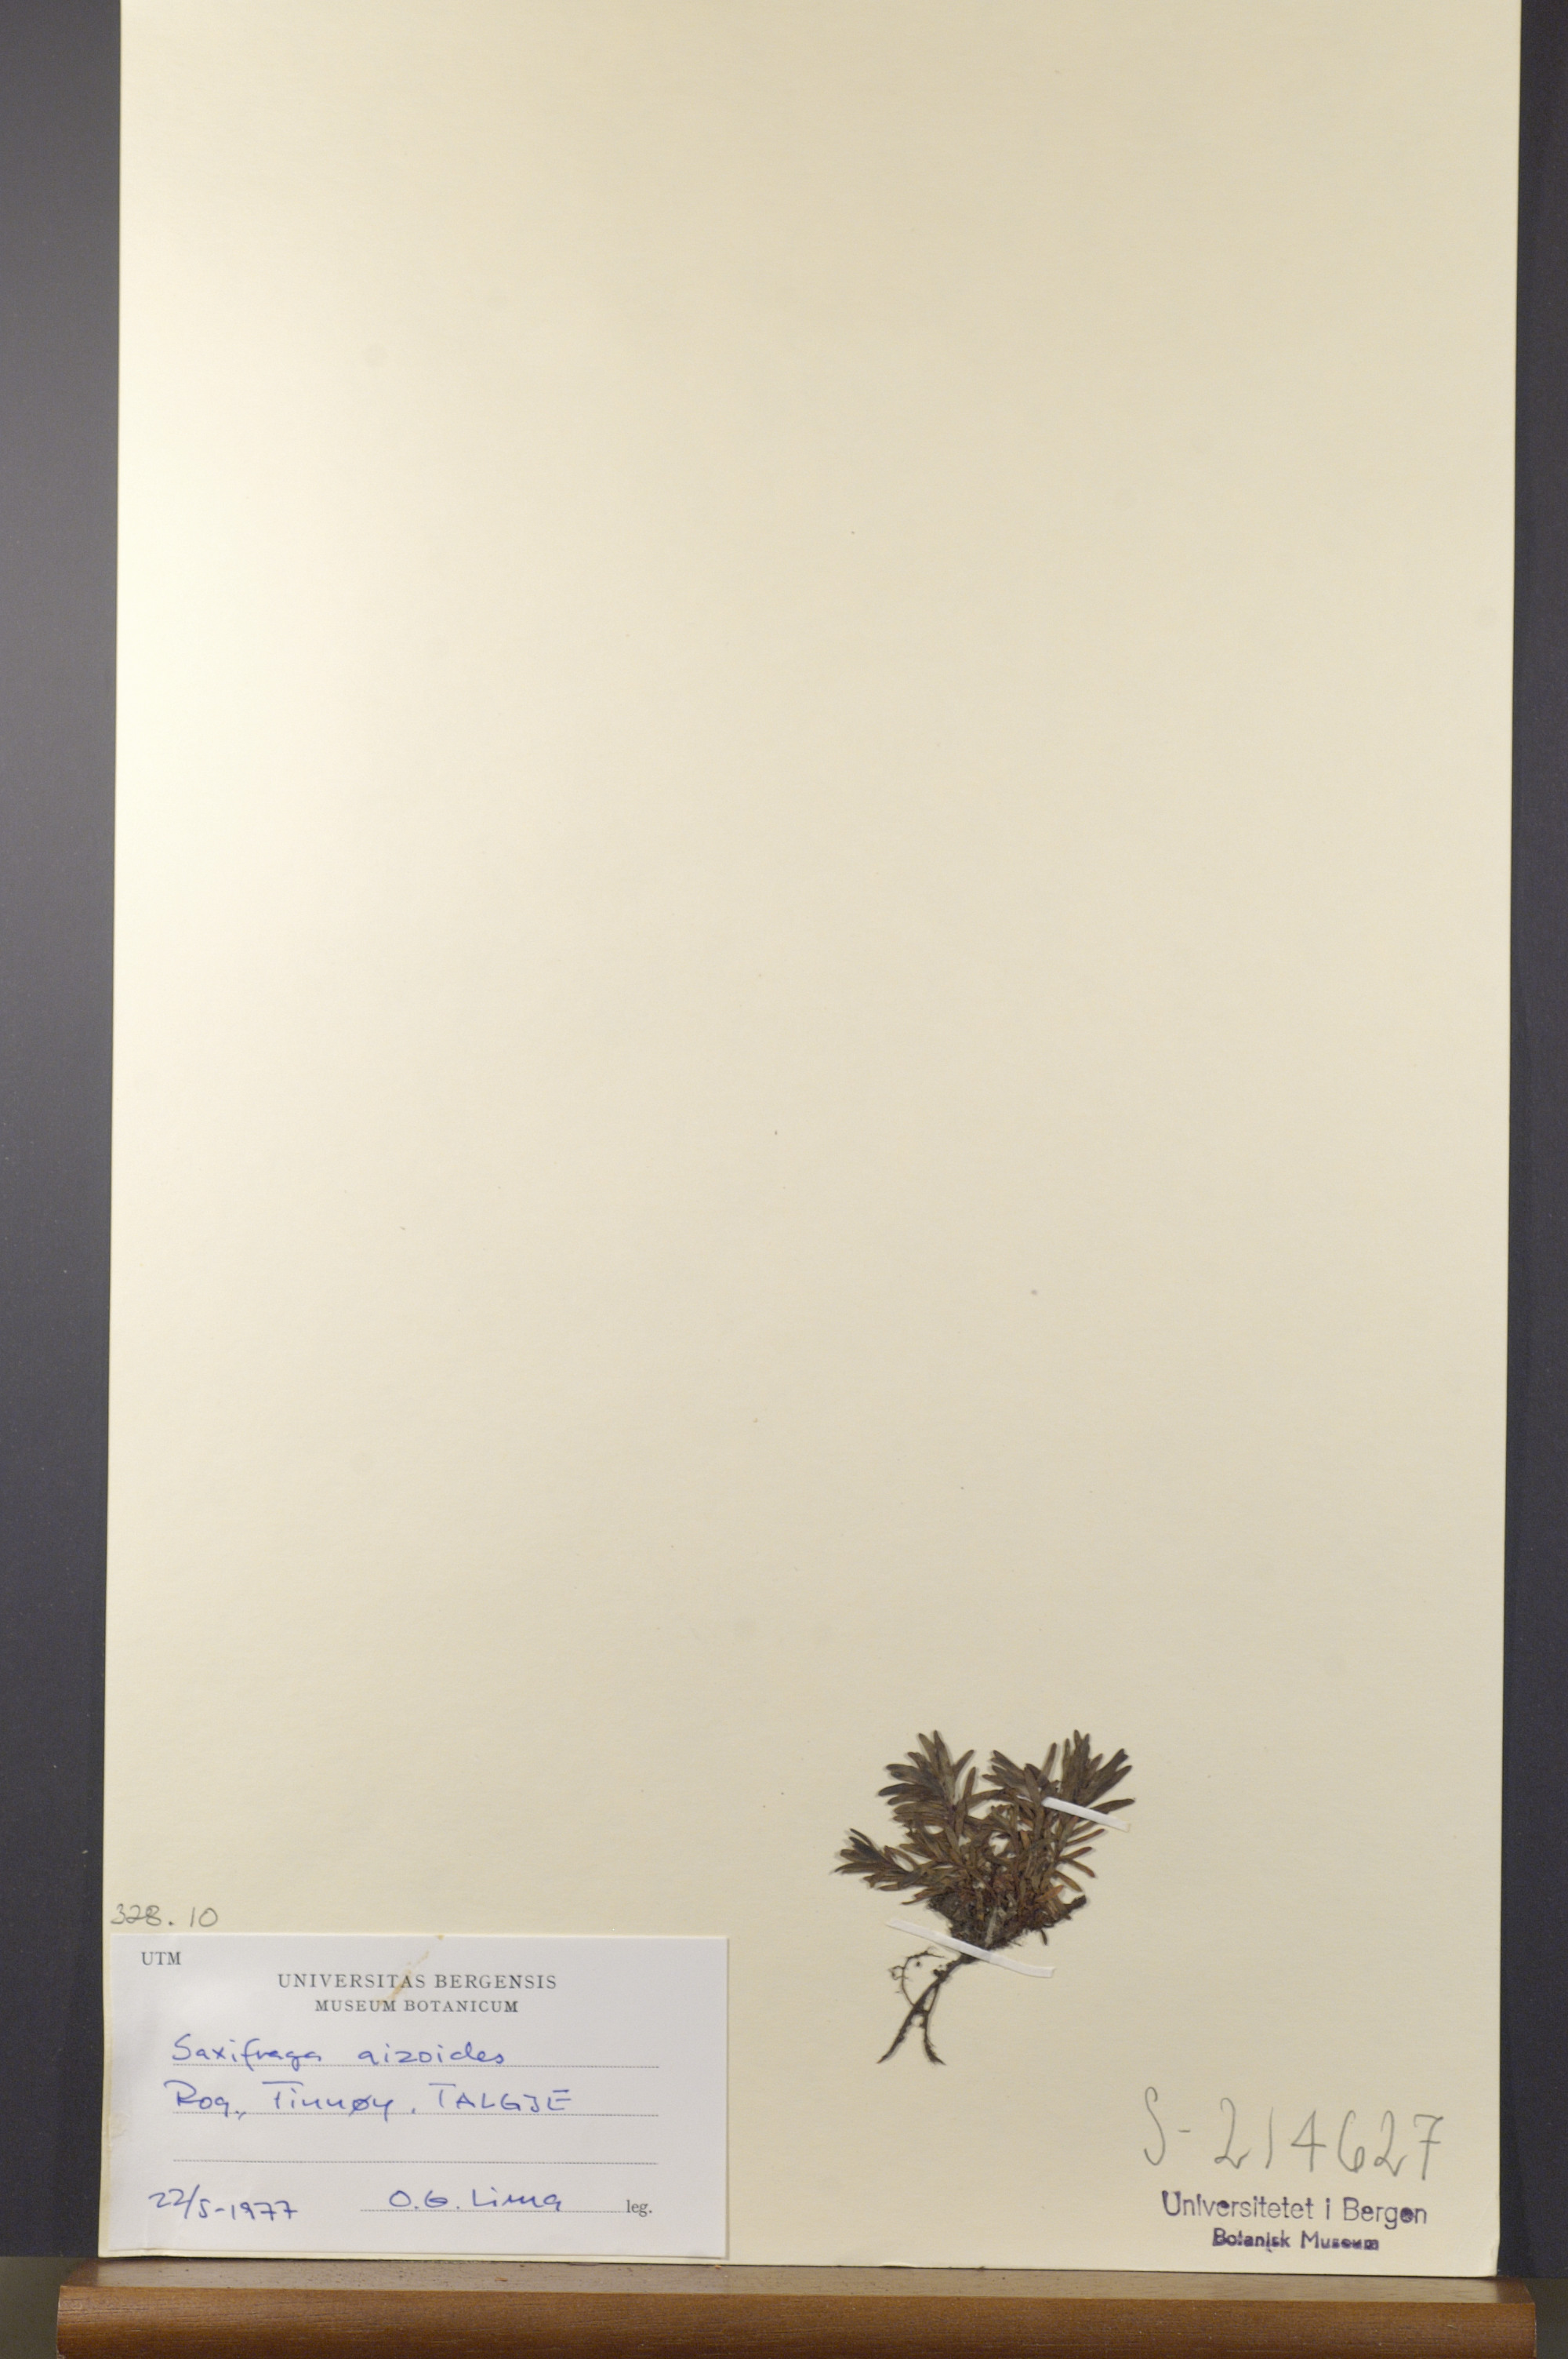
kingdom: Plantae
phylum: Tracheophyta
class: Magnoliopsida
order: Saxifragales
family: Saxifragaceae
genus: Saxifraga
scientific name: Saxifraga aizoides
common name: Yellow mountain saxifrage
